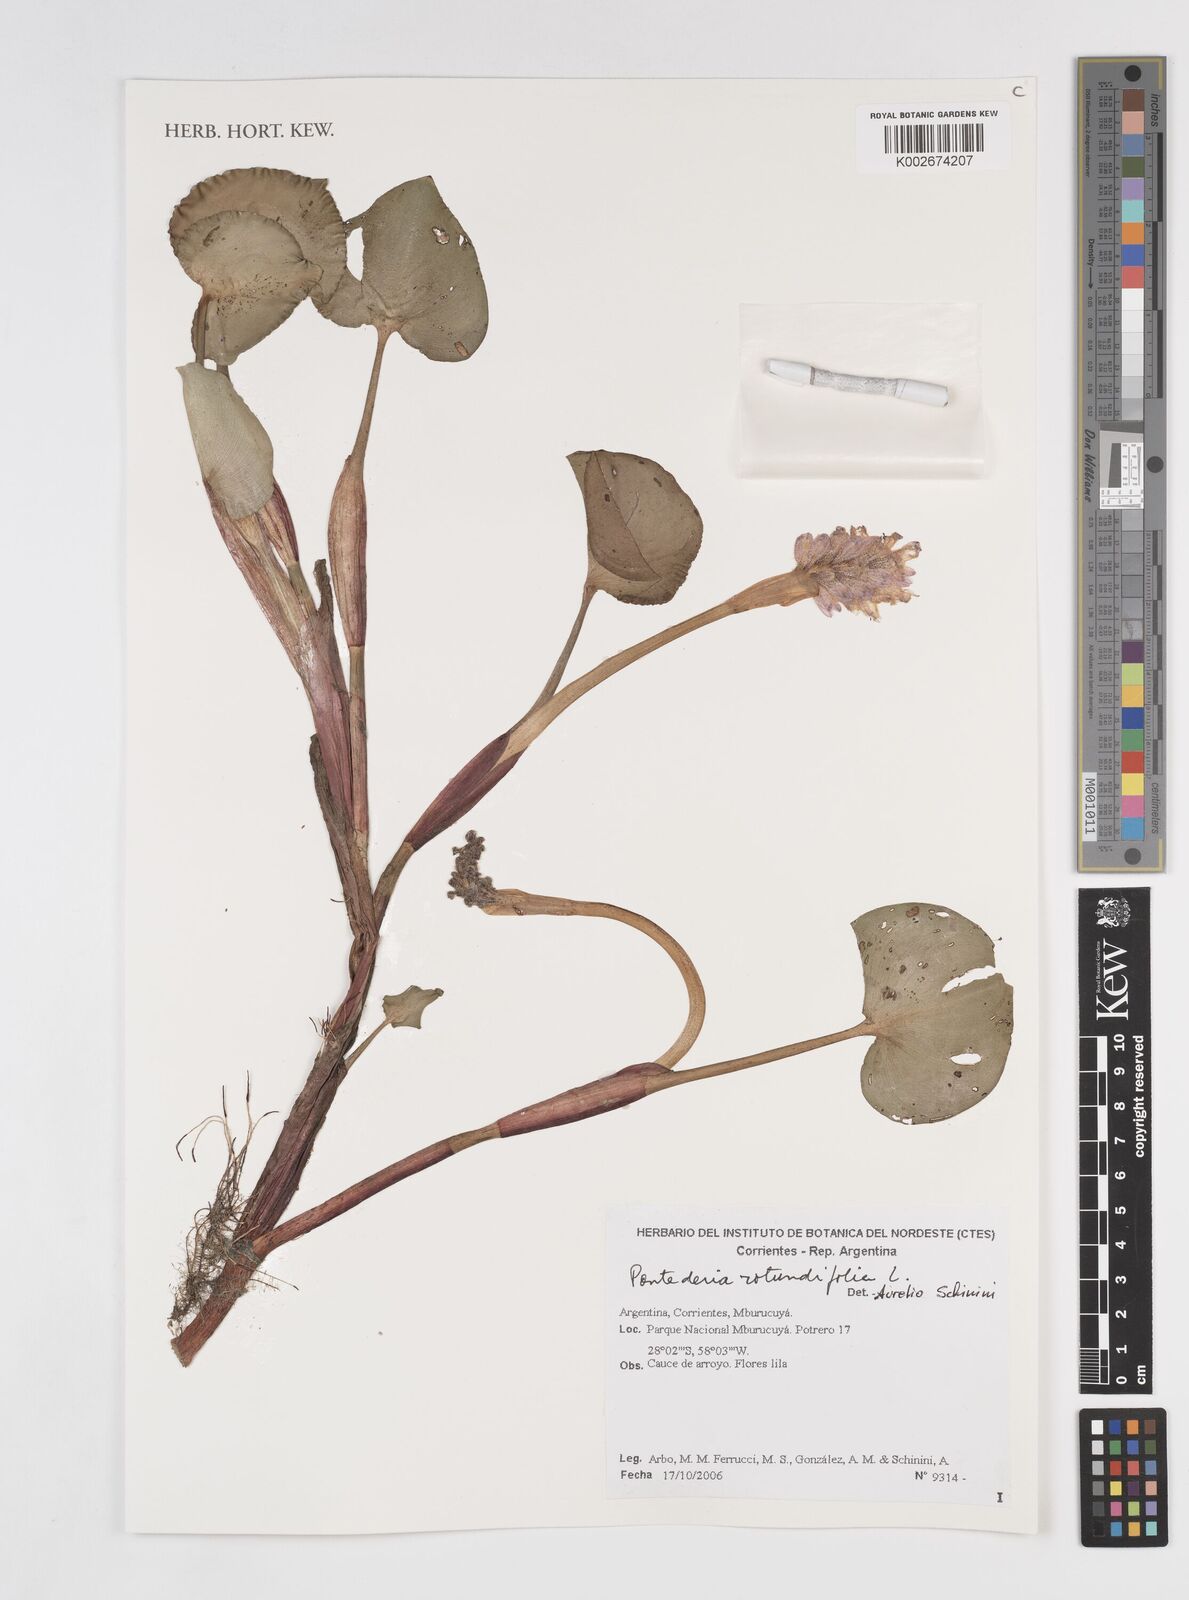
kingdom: Plantae
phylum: Tracheophyta
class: Liliopsida
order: Commelinales
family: Pontederiaceae
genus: Pontederia
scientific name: Pontederia rotundifolia
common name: Tropical pickerel-weed
